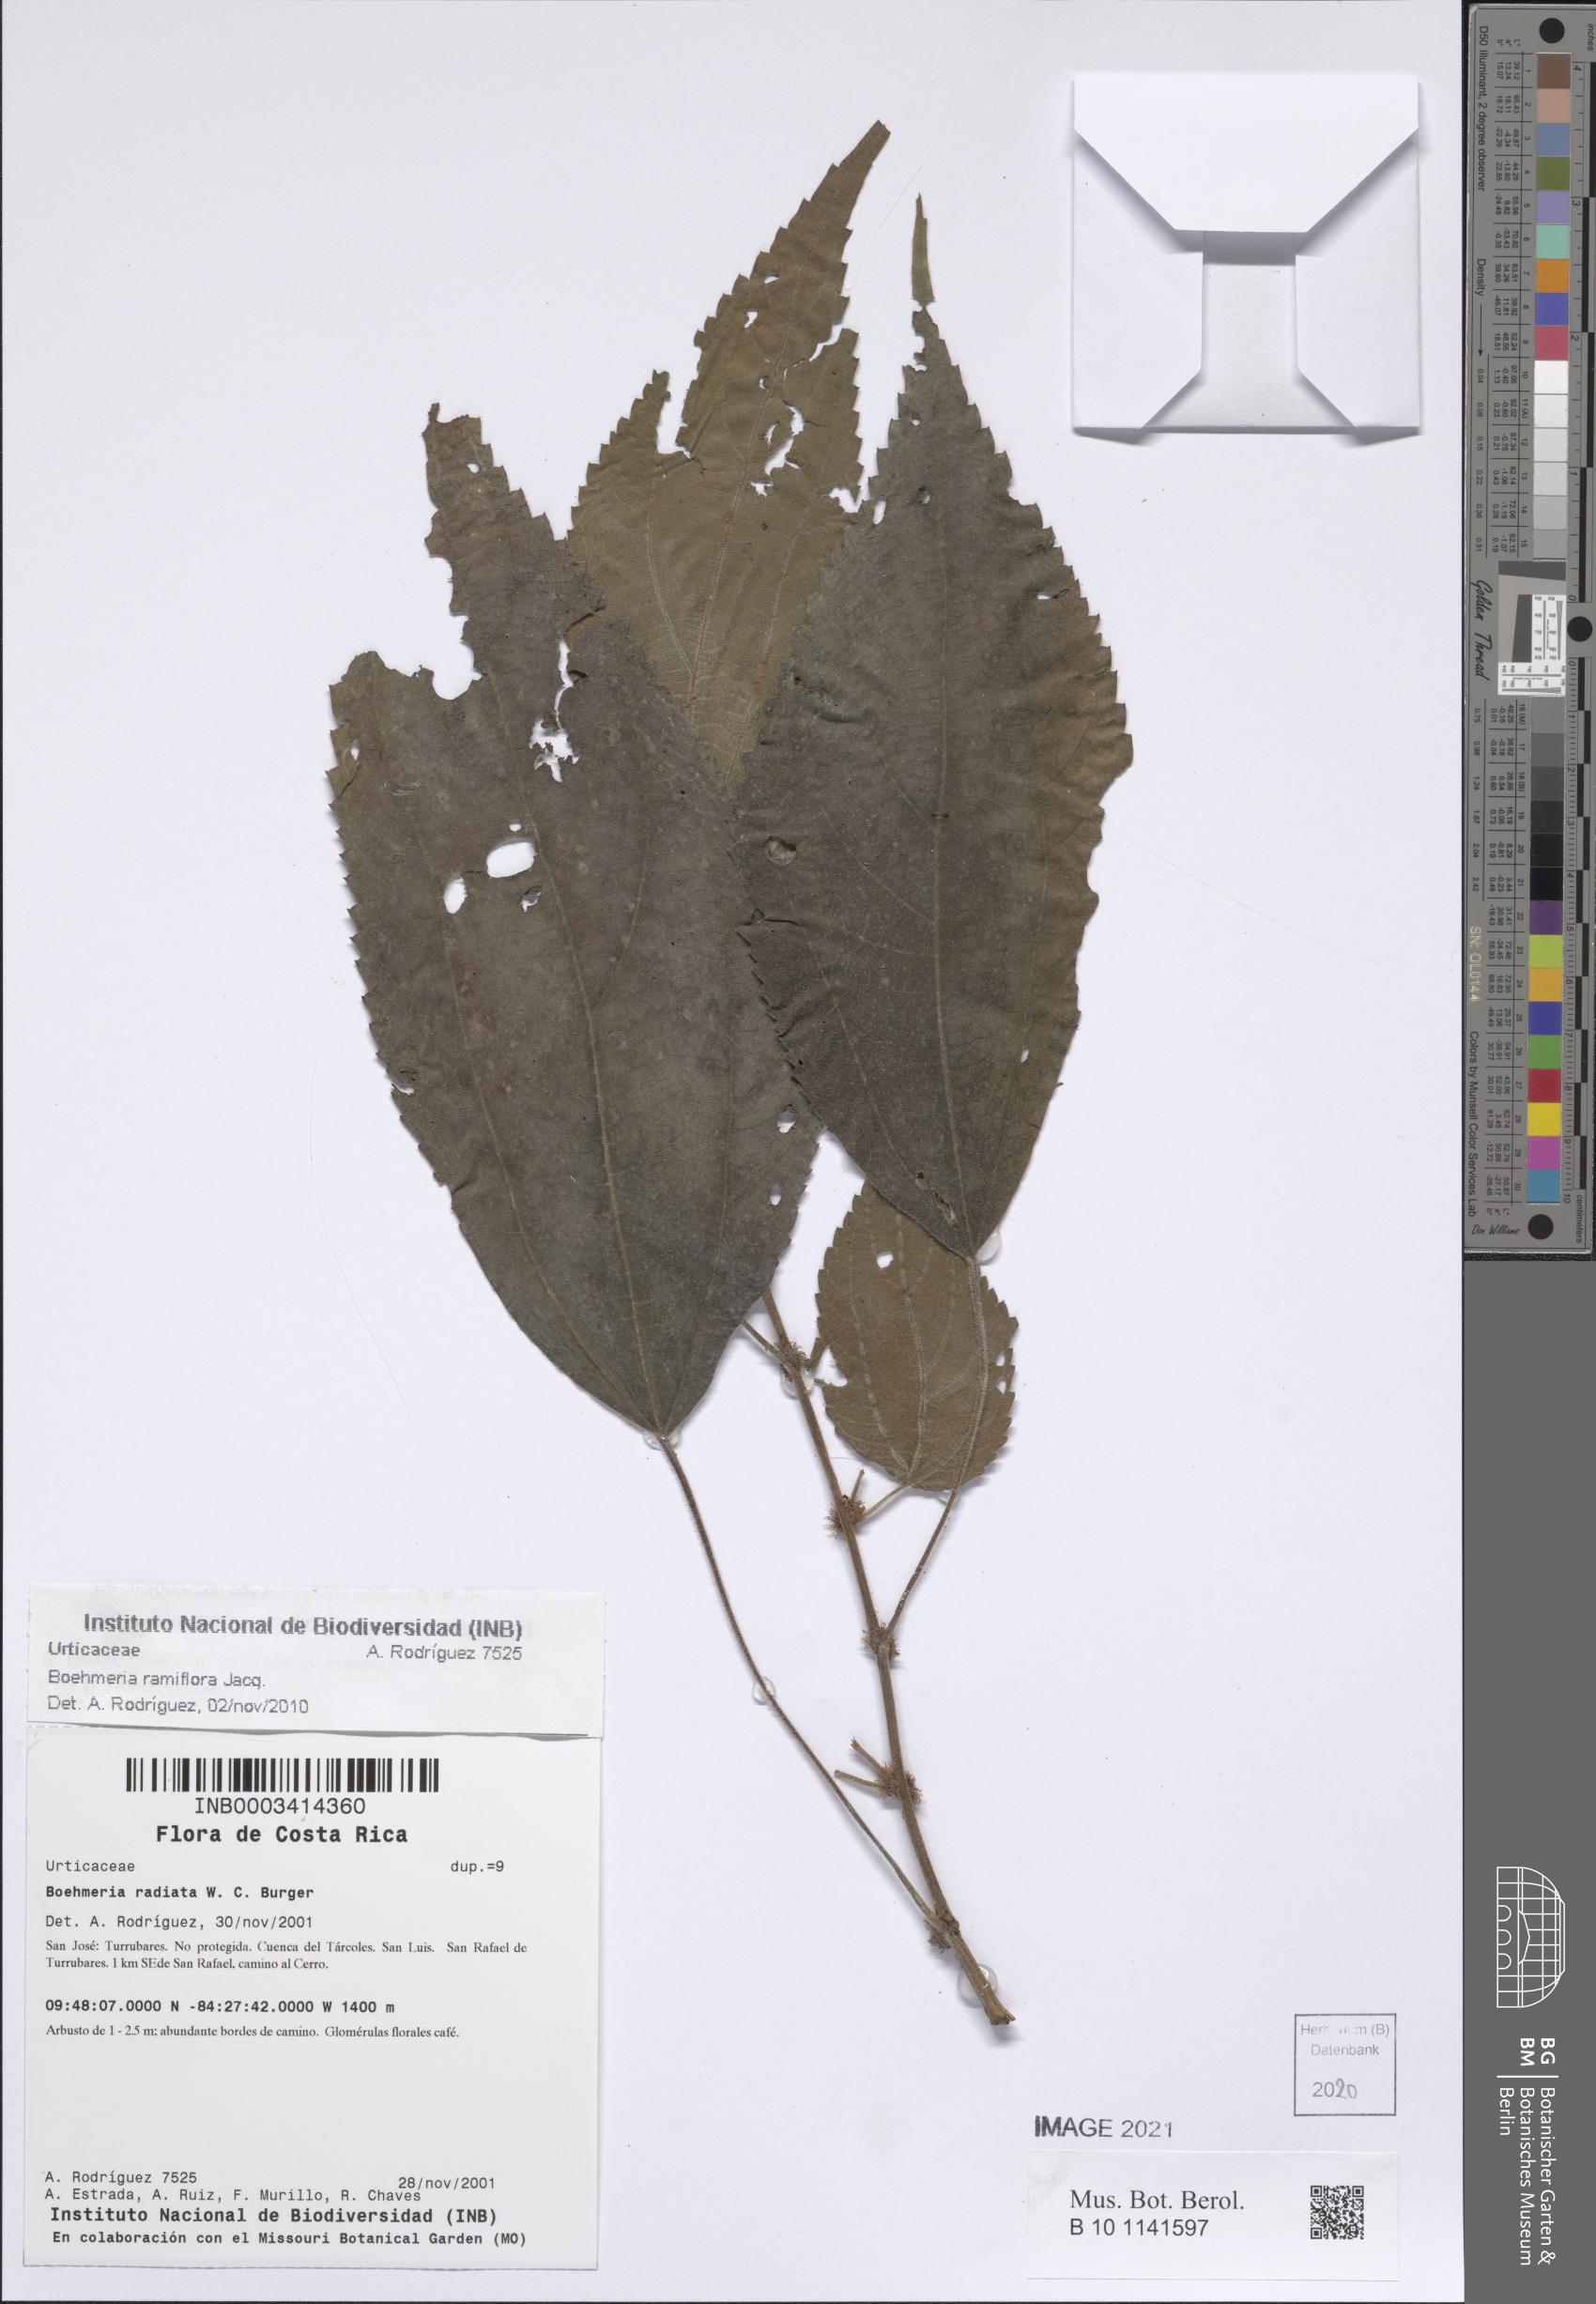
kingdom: Plantae
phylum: Tracheophyta
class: Magnoliopsida
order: Rosales
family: Urticaceae
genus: Boehmeria
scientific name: Boehmeria ramiflora
